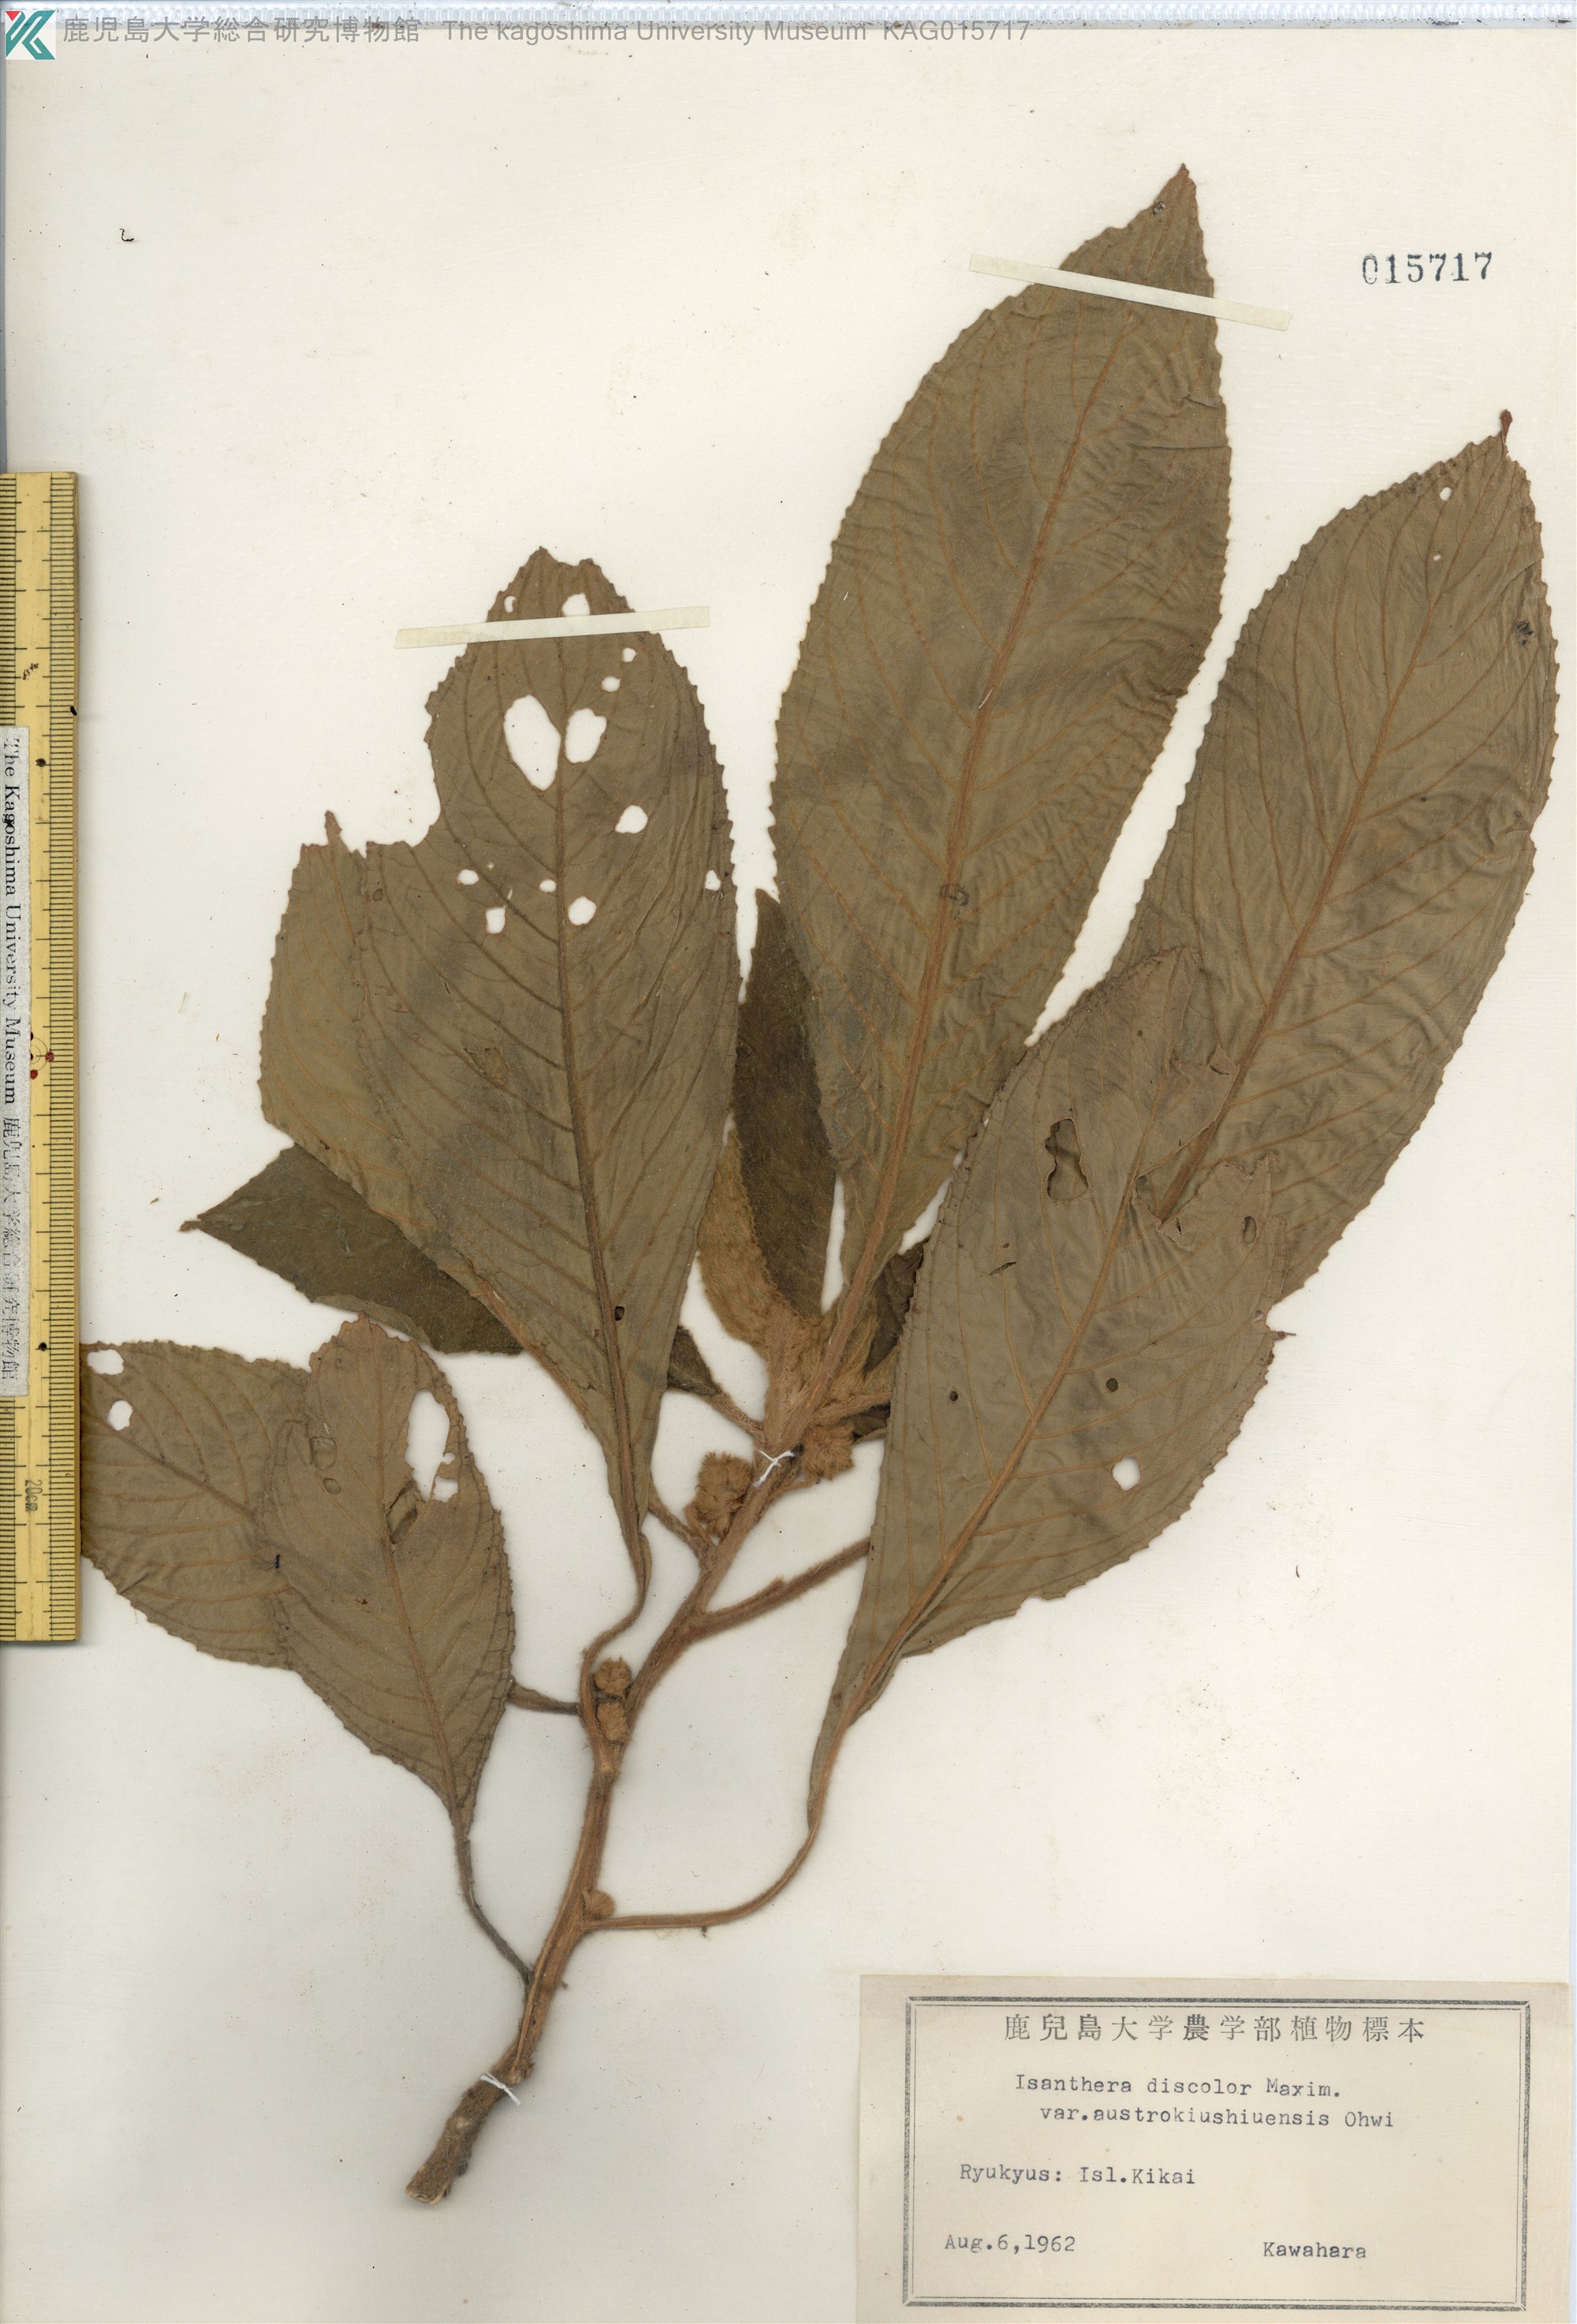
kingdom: Plantae
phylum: Tracheophyta
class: Magnoliopsida
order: Lamiales
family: Gesneriaceae
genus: Rhynchotechum
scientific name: Rhynchotechum discolor
